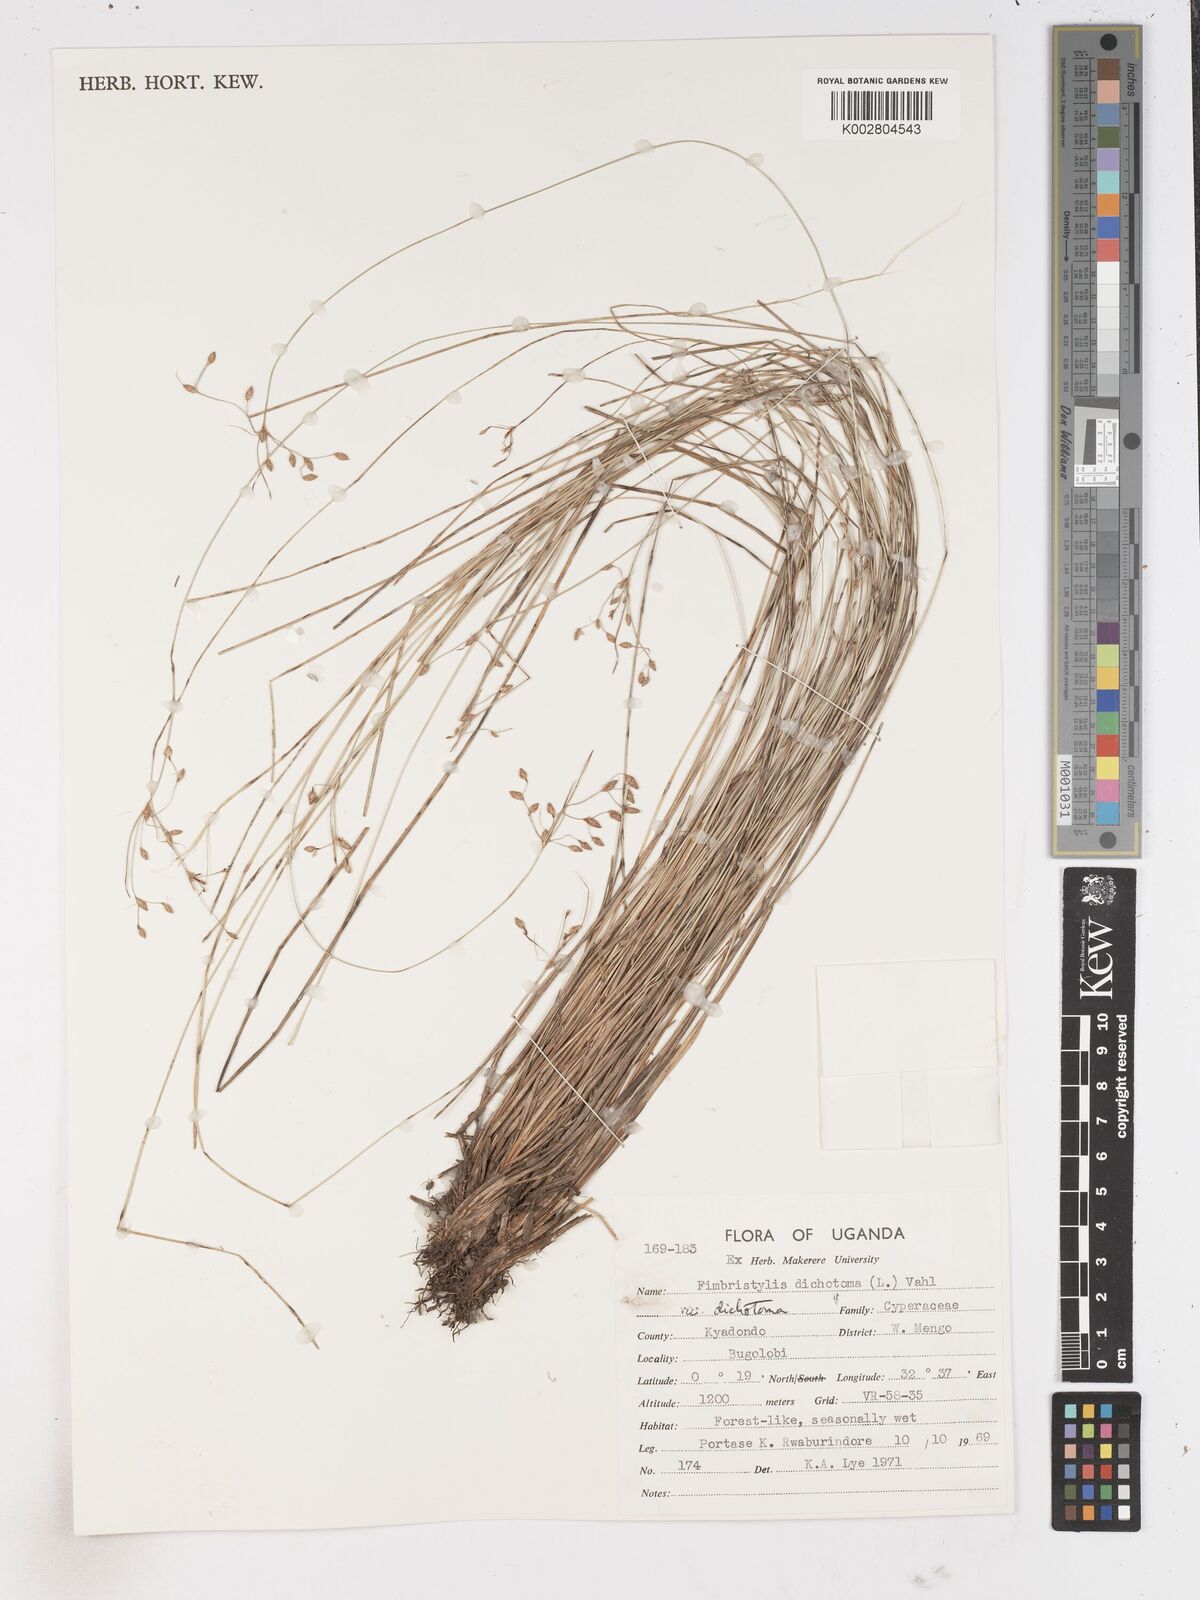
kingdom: Plantae
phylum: Tracheophyta
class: Liliopsida
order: Poales
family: Cyperaceae
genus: Fimbristylis
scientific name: Fimbristylis dichotoma
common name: Forked fimbry
